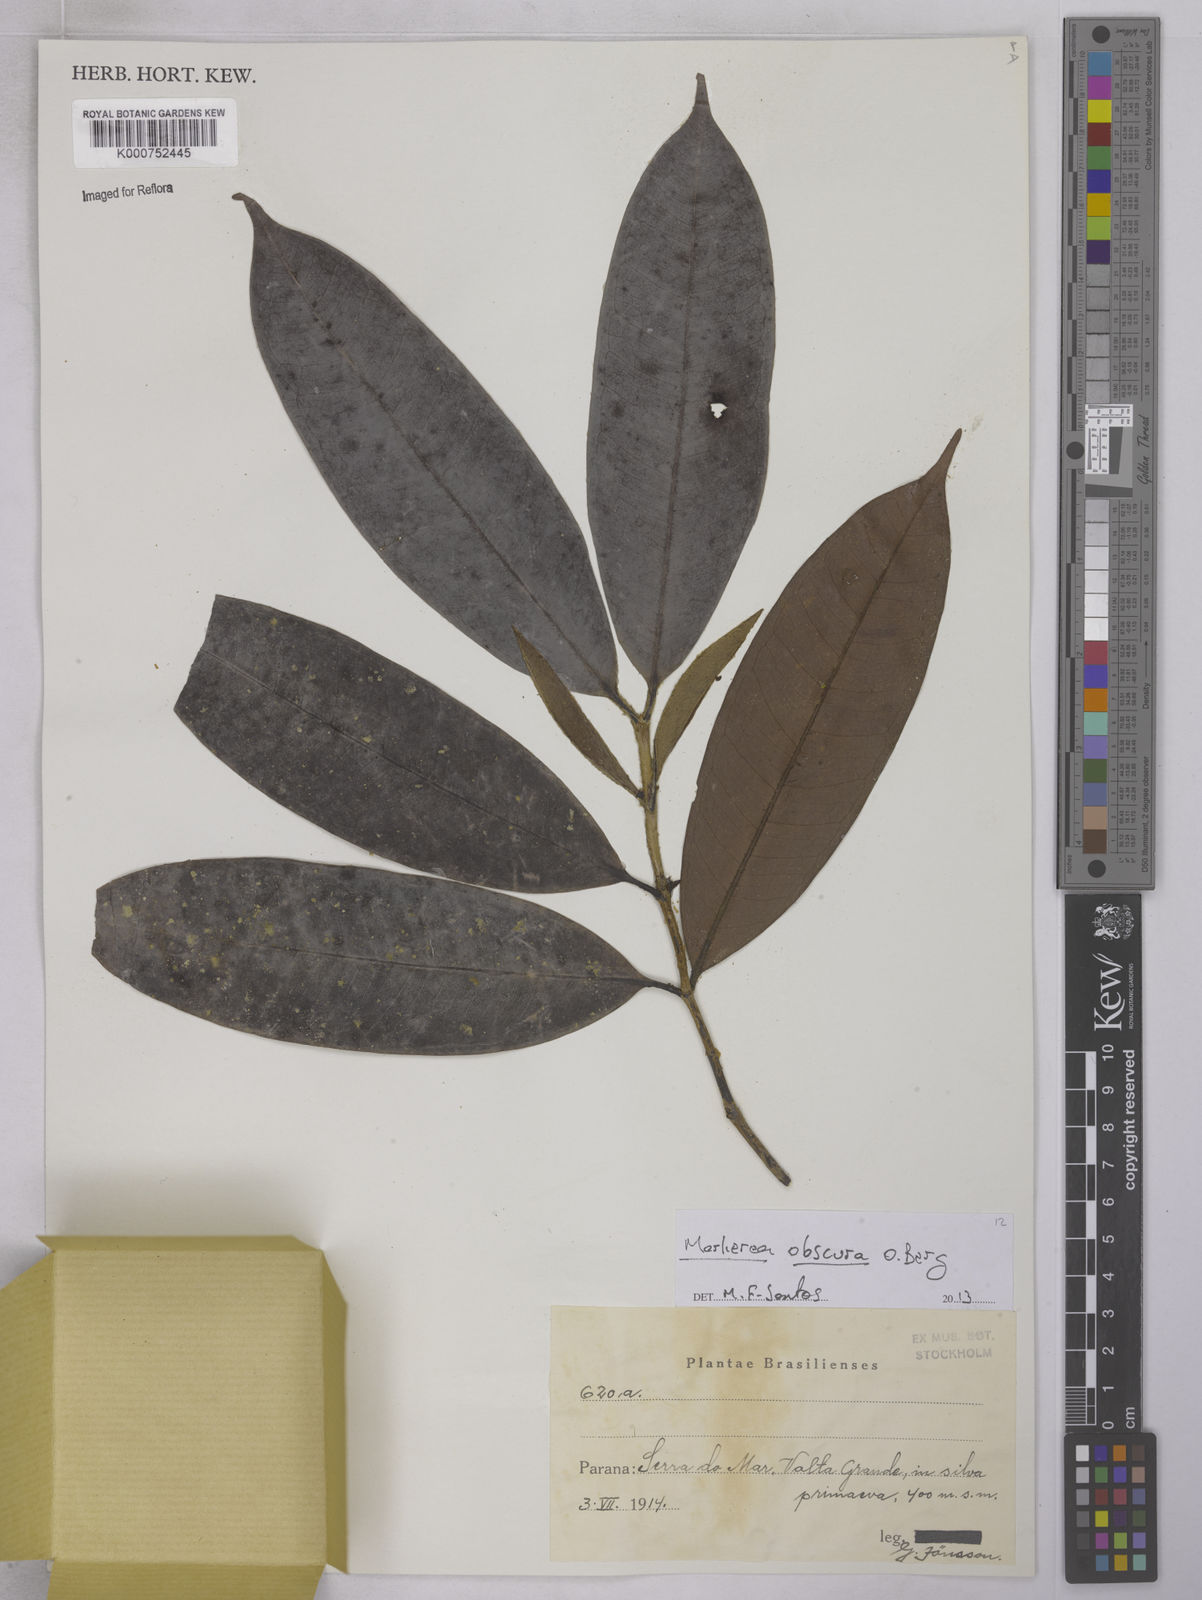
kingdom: Plantae
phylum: Tracheophyta
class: Magnoliopsida
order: Myrtales
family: Myrtaceae
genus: Myrcia
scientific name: Myrcia neoobscura
